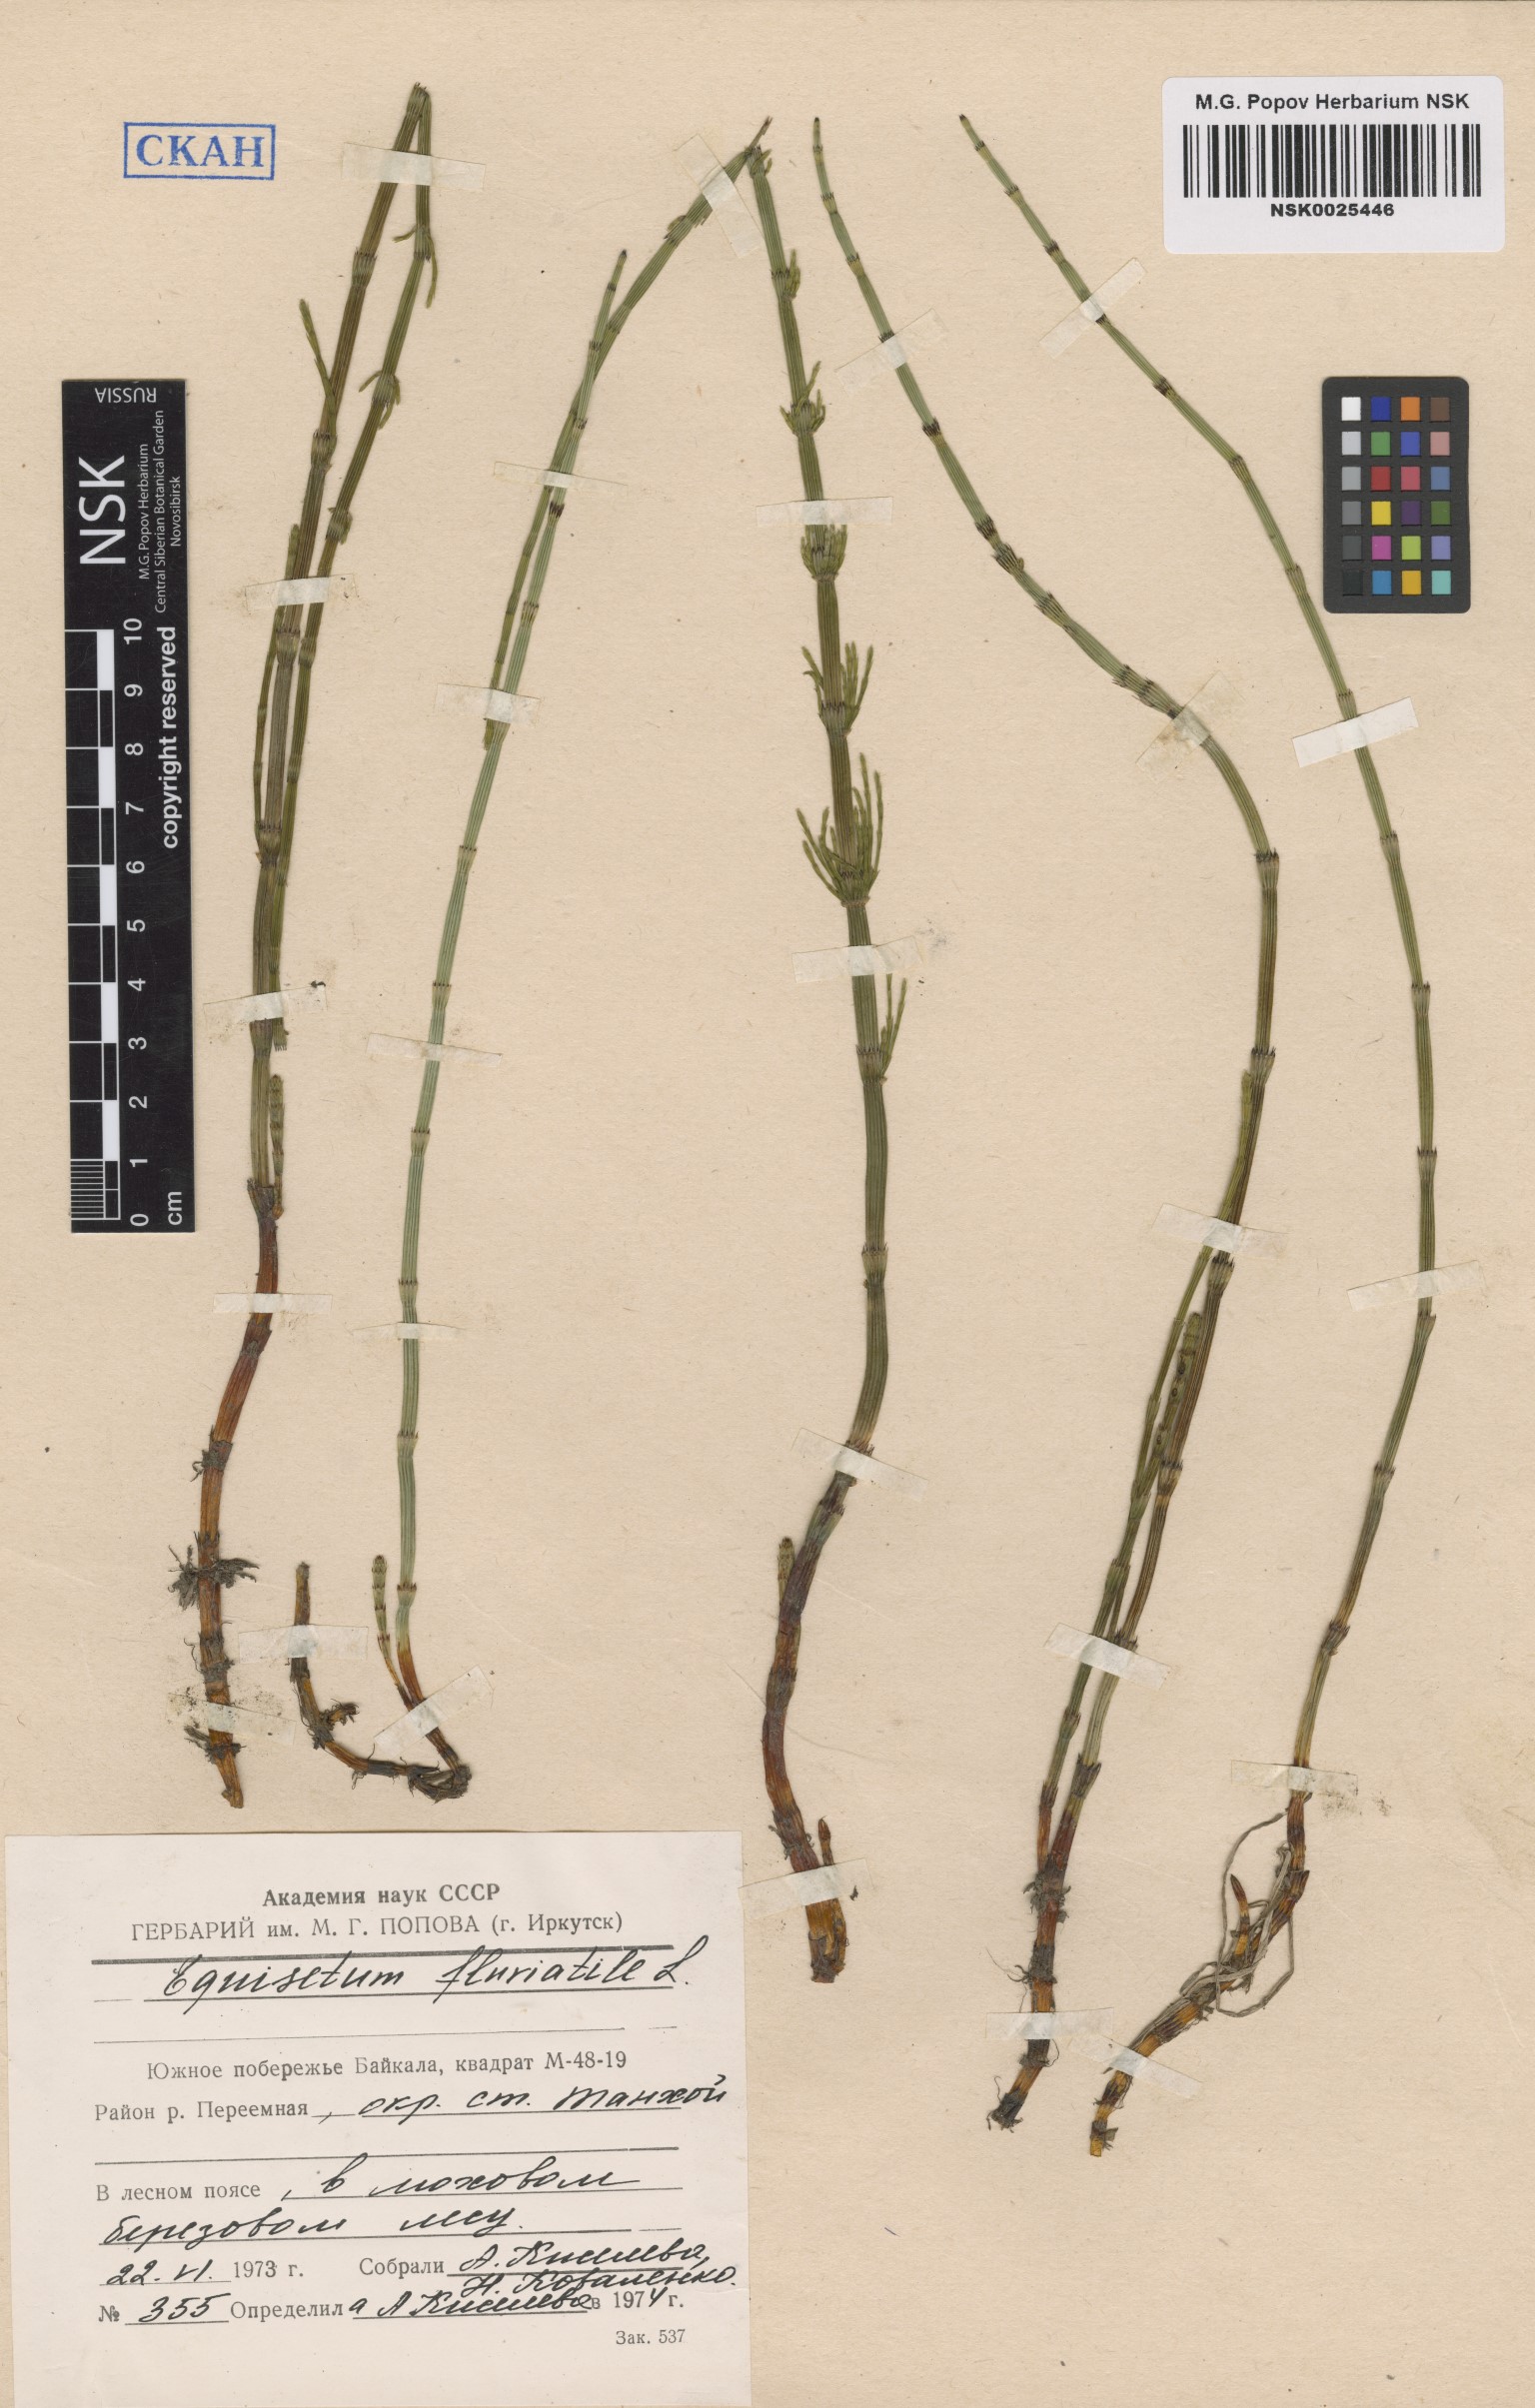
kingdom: Plantae
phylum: Tracheophyta
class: Polypodiopsida
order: Equisetales
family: Equisetaceae
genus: Equisetum
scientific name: Equisetum fluviatile
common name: Water horsetail
